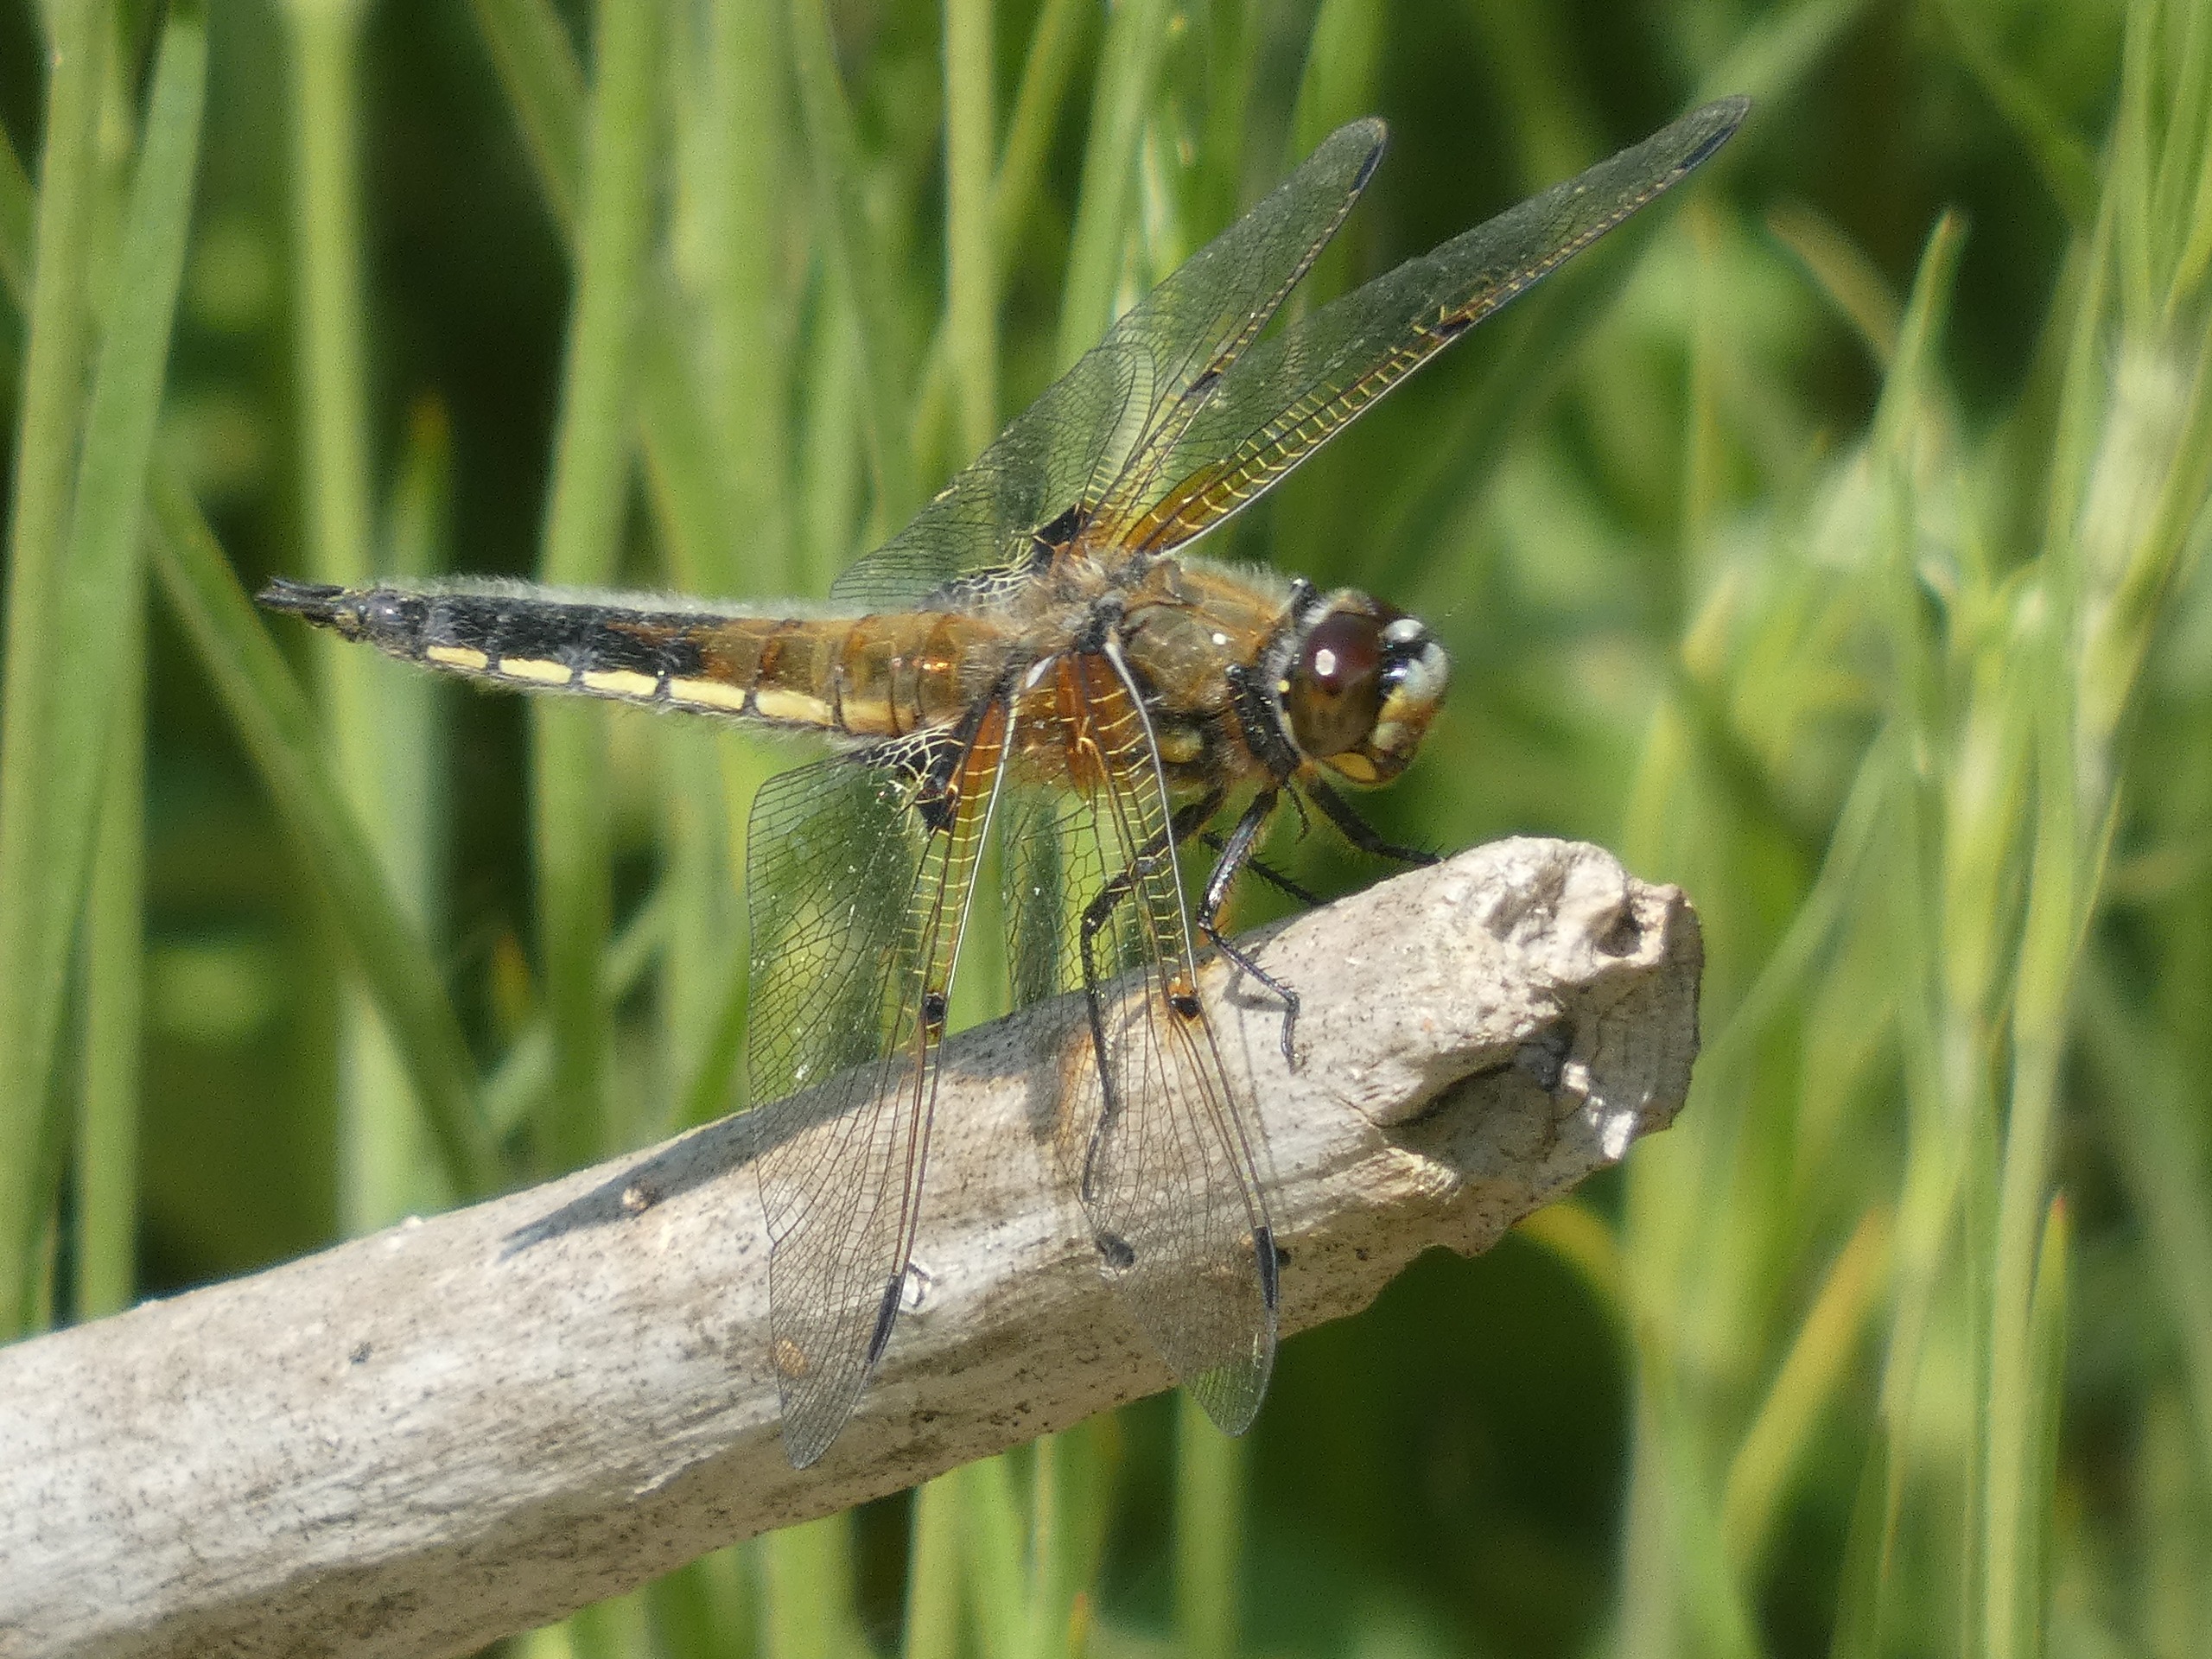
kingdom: Animalia
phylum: Arthropoda
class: Insecta
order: Odonata
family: Libellulidae
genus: Libellula
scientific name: Libellula quadrimaculata
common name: Fireplettet libel
